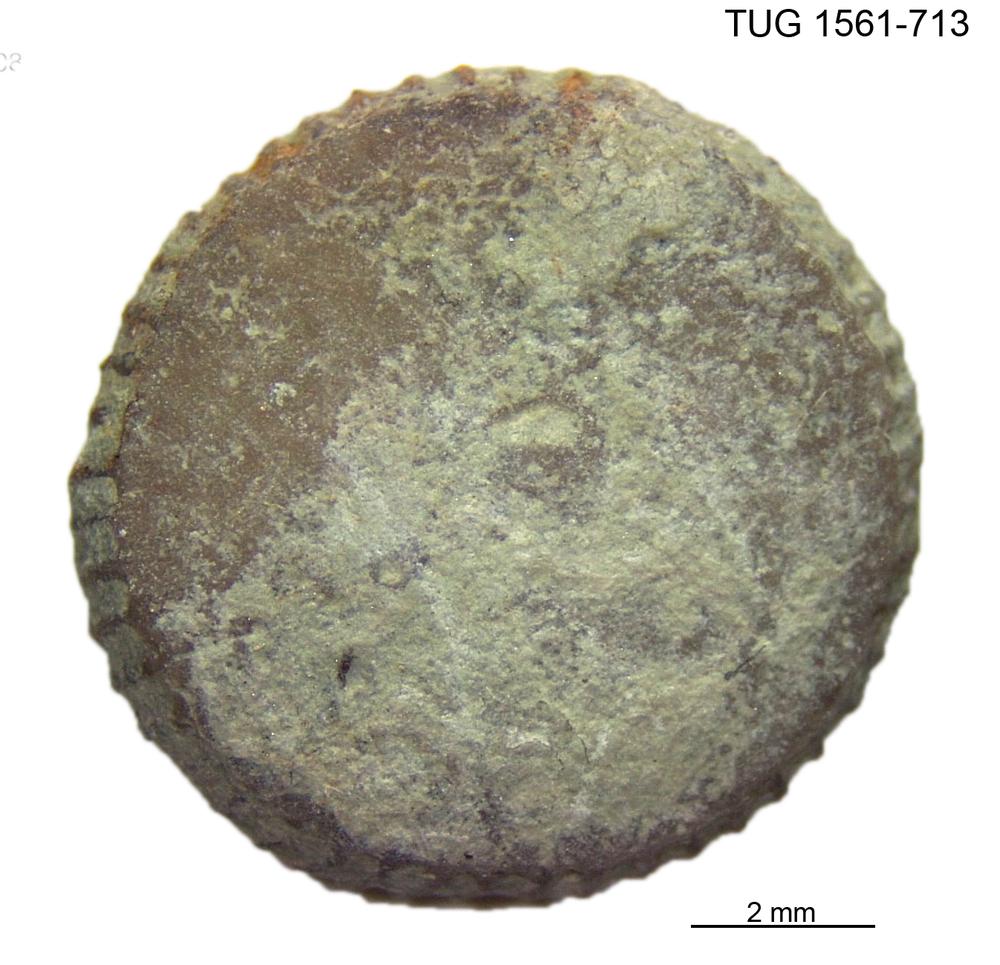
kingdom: Animalia
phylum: Cnidaria
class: Anthozoa
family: Palaeocyclidae
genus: Palaeocyclus
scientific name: Palaeocyclus Porpites porpita
